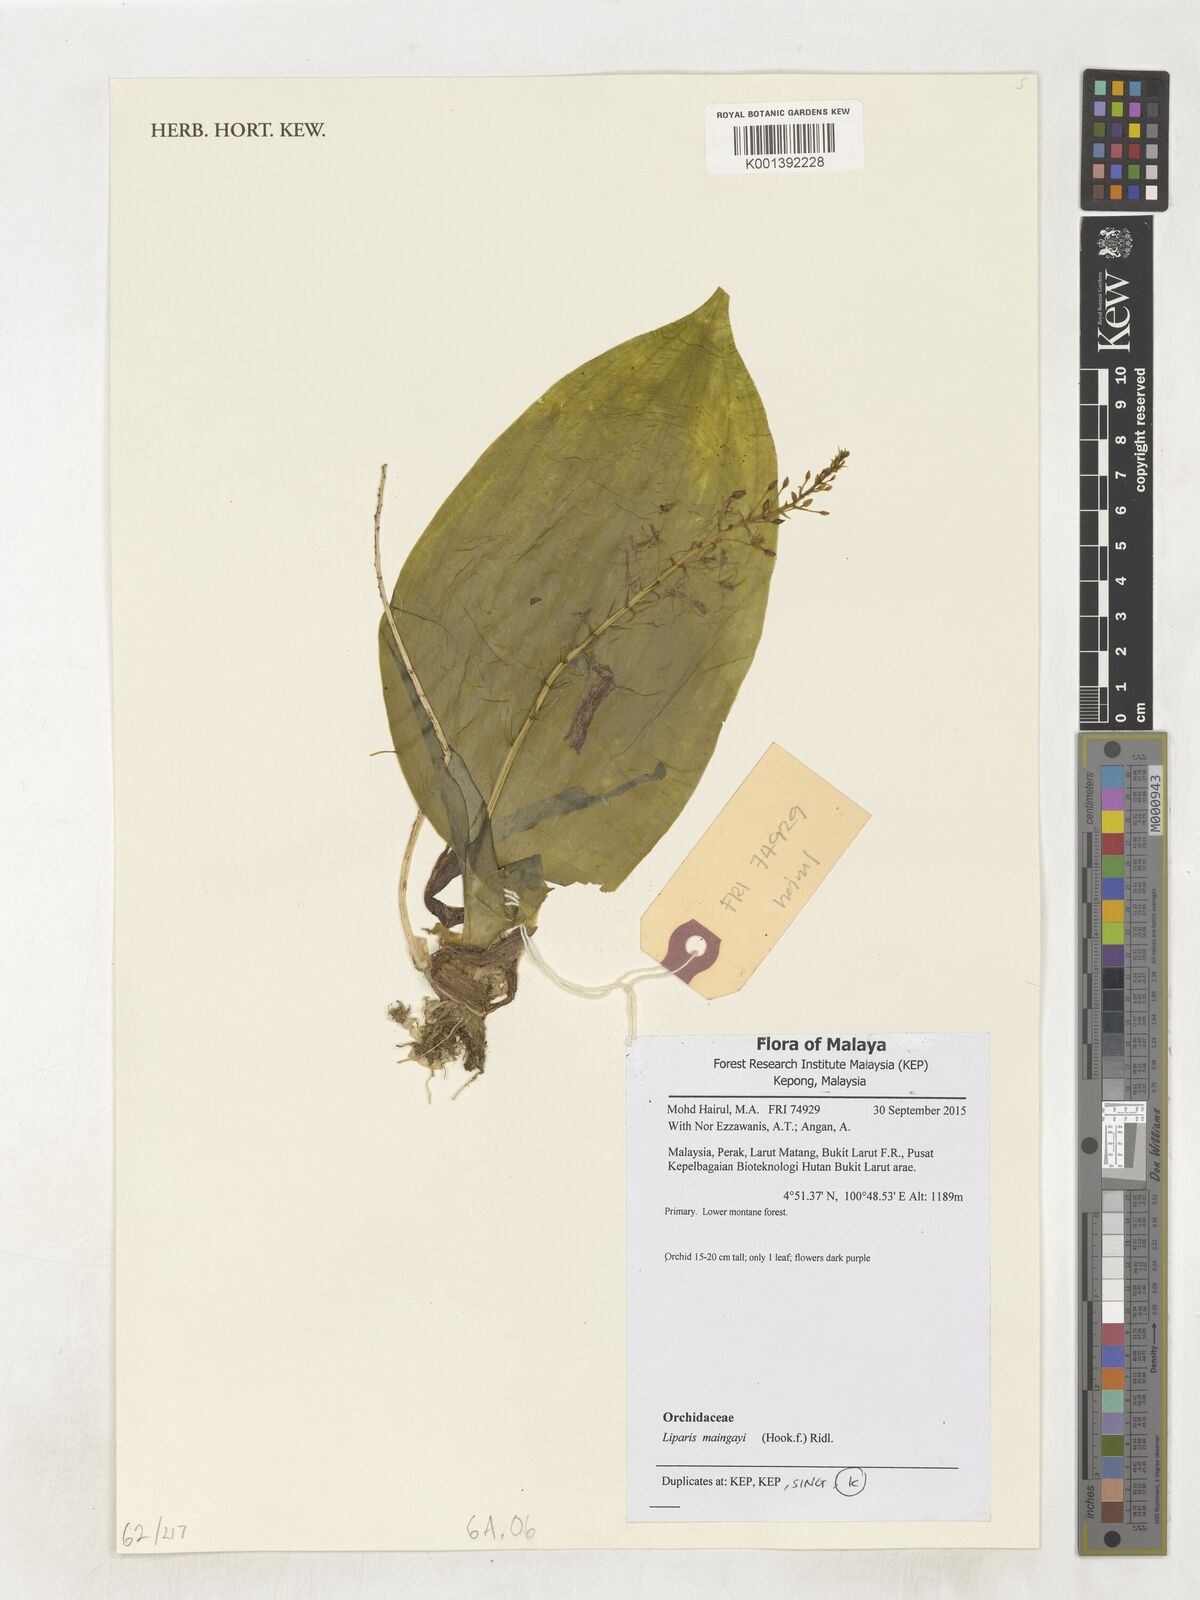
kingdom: Plantae
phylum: Tracheophyta
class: Liliopsida
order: Asparagales
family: Orchidaceae
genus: Oberonioides
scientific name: Oberonioides maingayi
